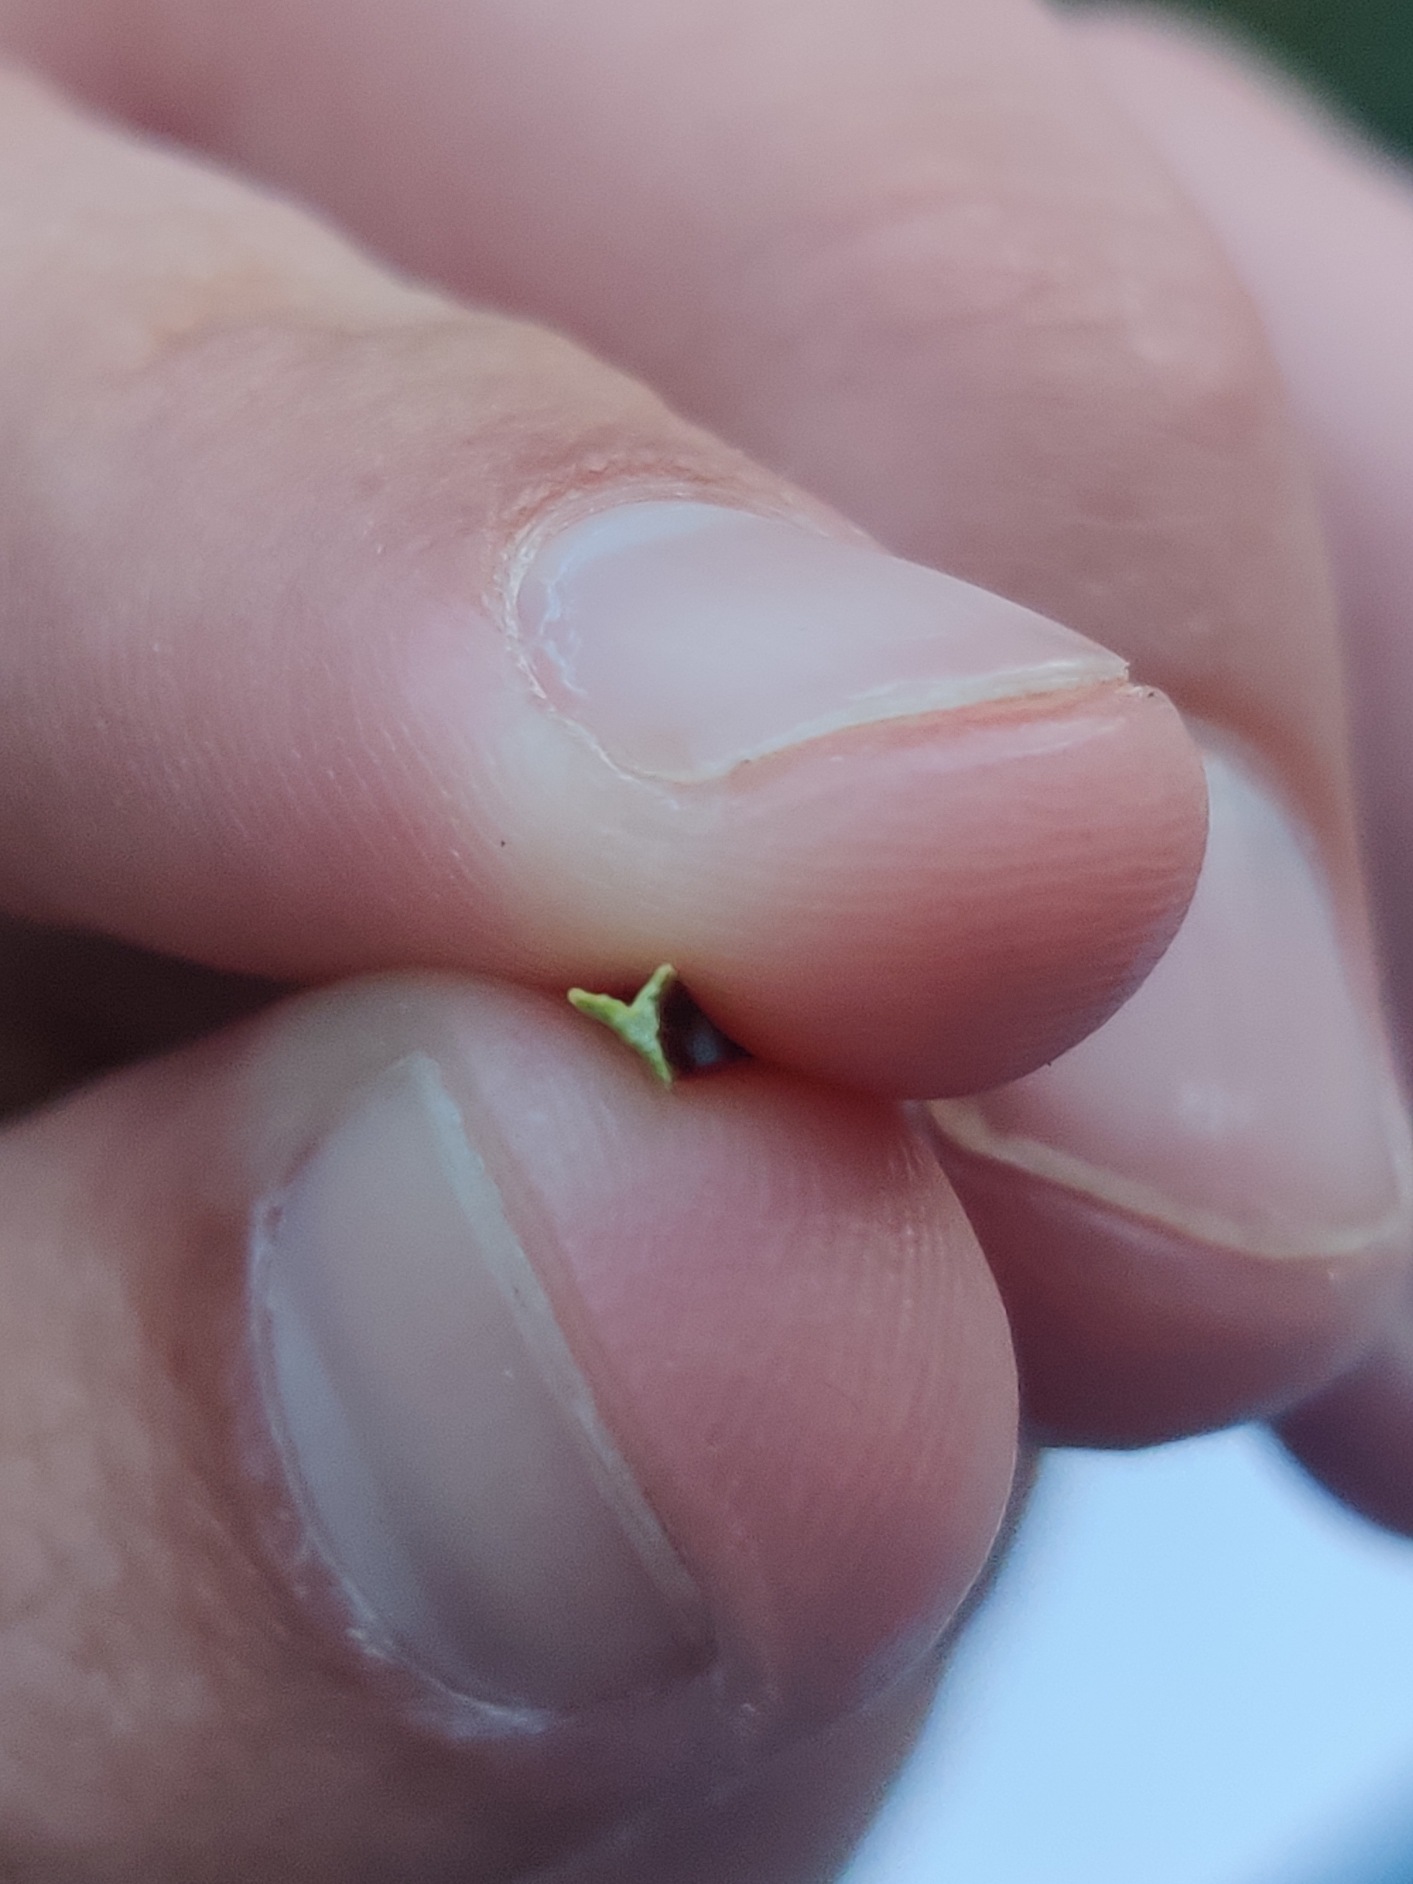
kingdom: Plantae
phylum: Tracheophyta
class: Liliopsida
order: Poales
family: Cyperaceae
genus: Carex
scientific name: Carex otrubae
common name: Sylt-star
